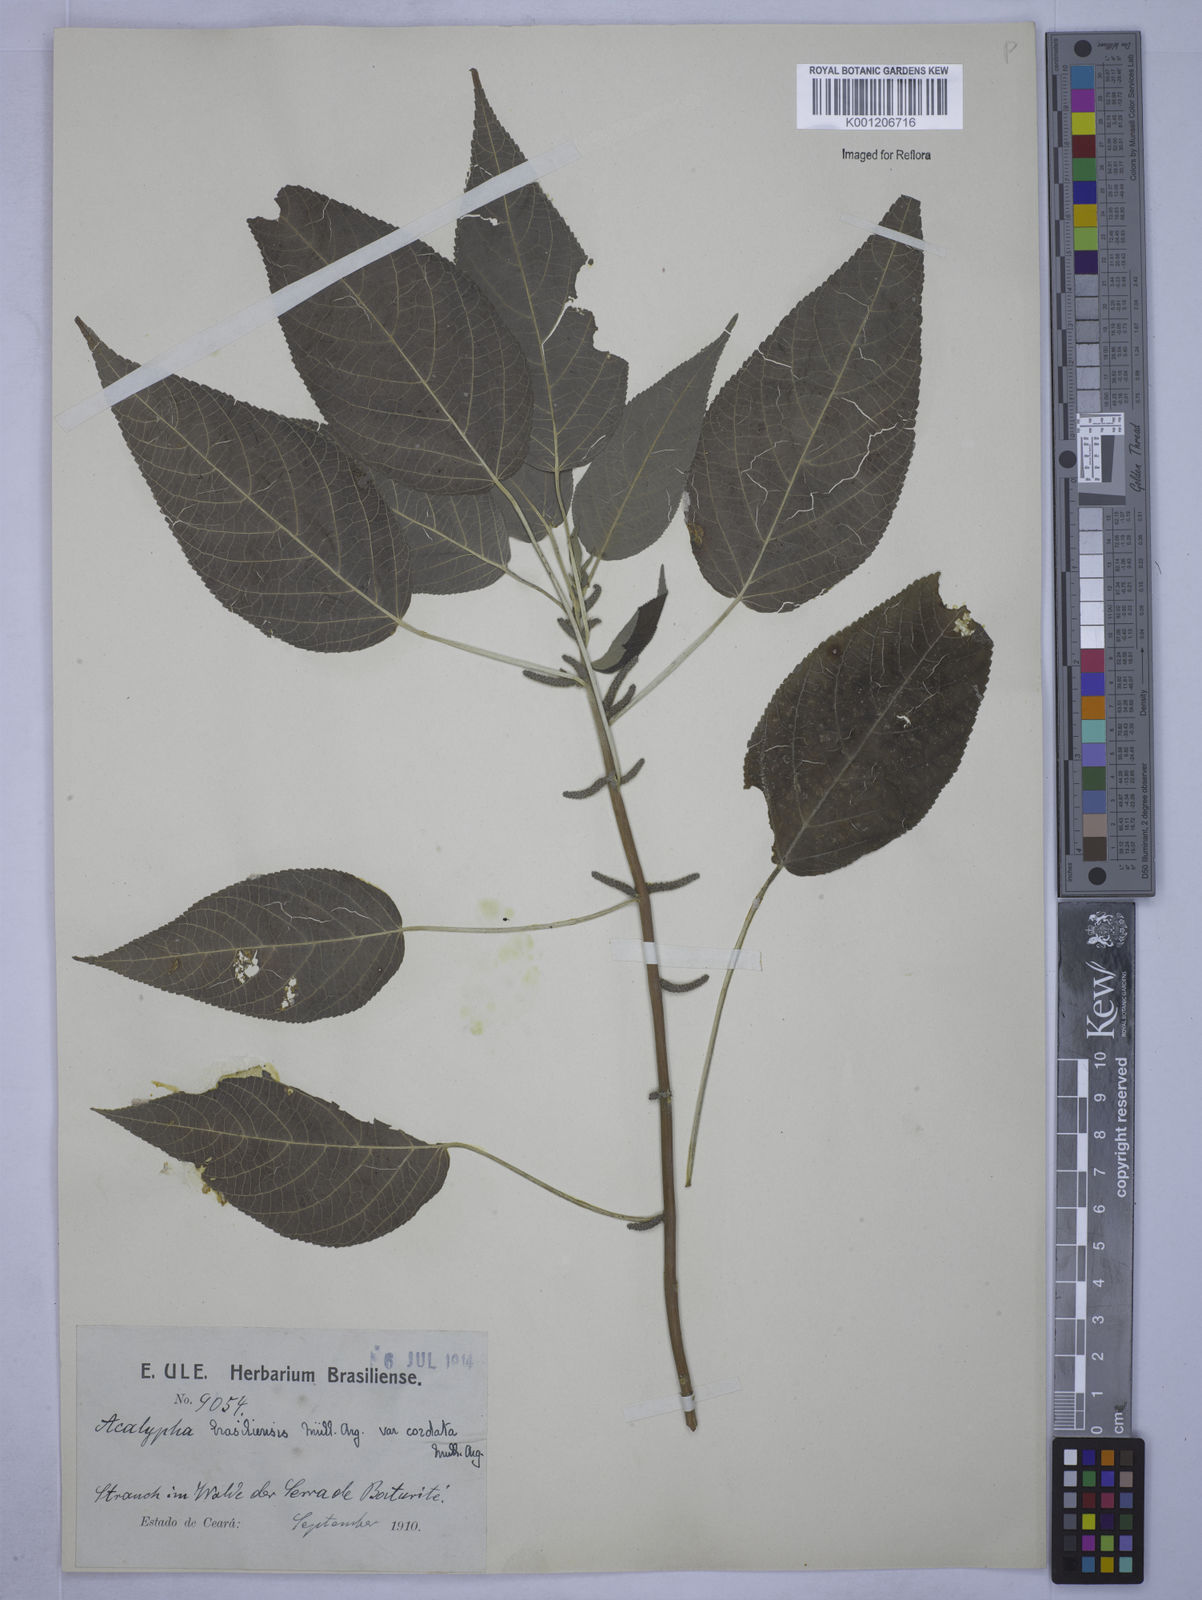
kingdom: Plantae
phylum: Tracheophyta
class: Magnoliopsida
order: Malpighiales
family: Euphorbiaceae
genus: Acalypha
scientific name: Acalypha
